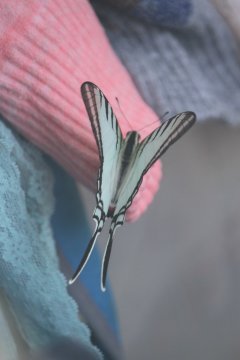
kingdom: Animalia
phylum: Arthropoda
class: Insecta
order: Lepidoptera
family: Papilionidae
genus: Eurytides
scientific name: Eurytides
